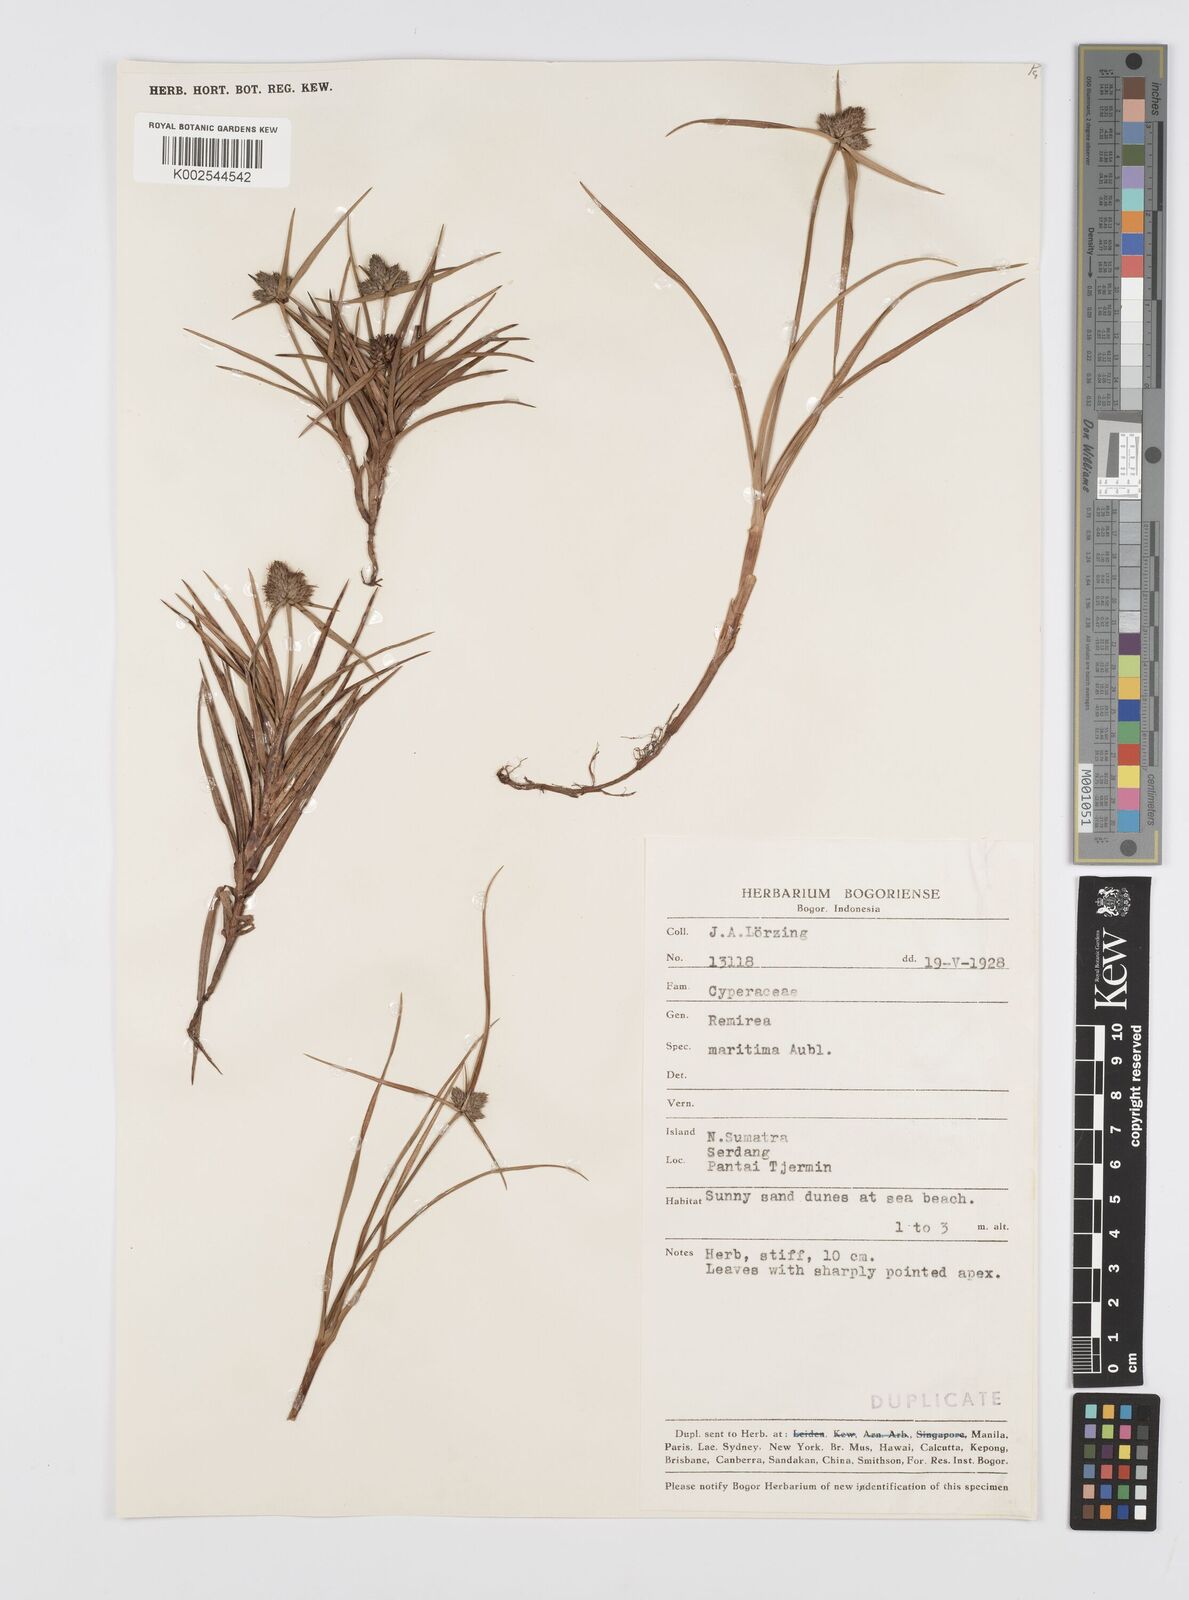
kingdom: Plantae
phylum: Tracheophyta
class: Liliopsida
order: Poales
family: Cyperaceae
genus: Cyperus
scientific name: Cyperus
